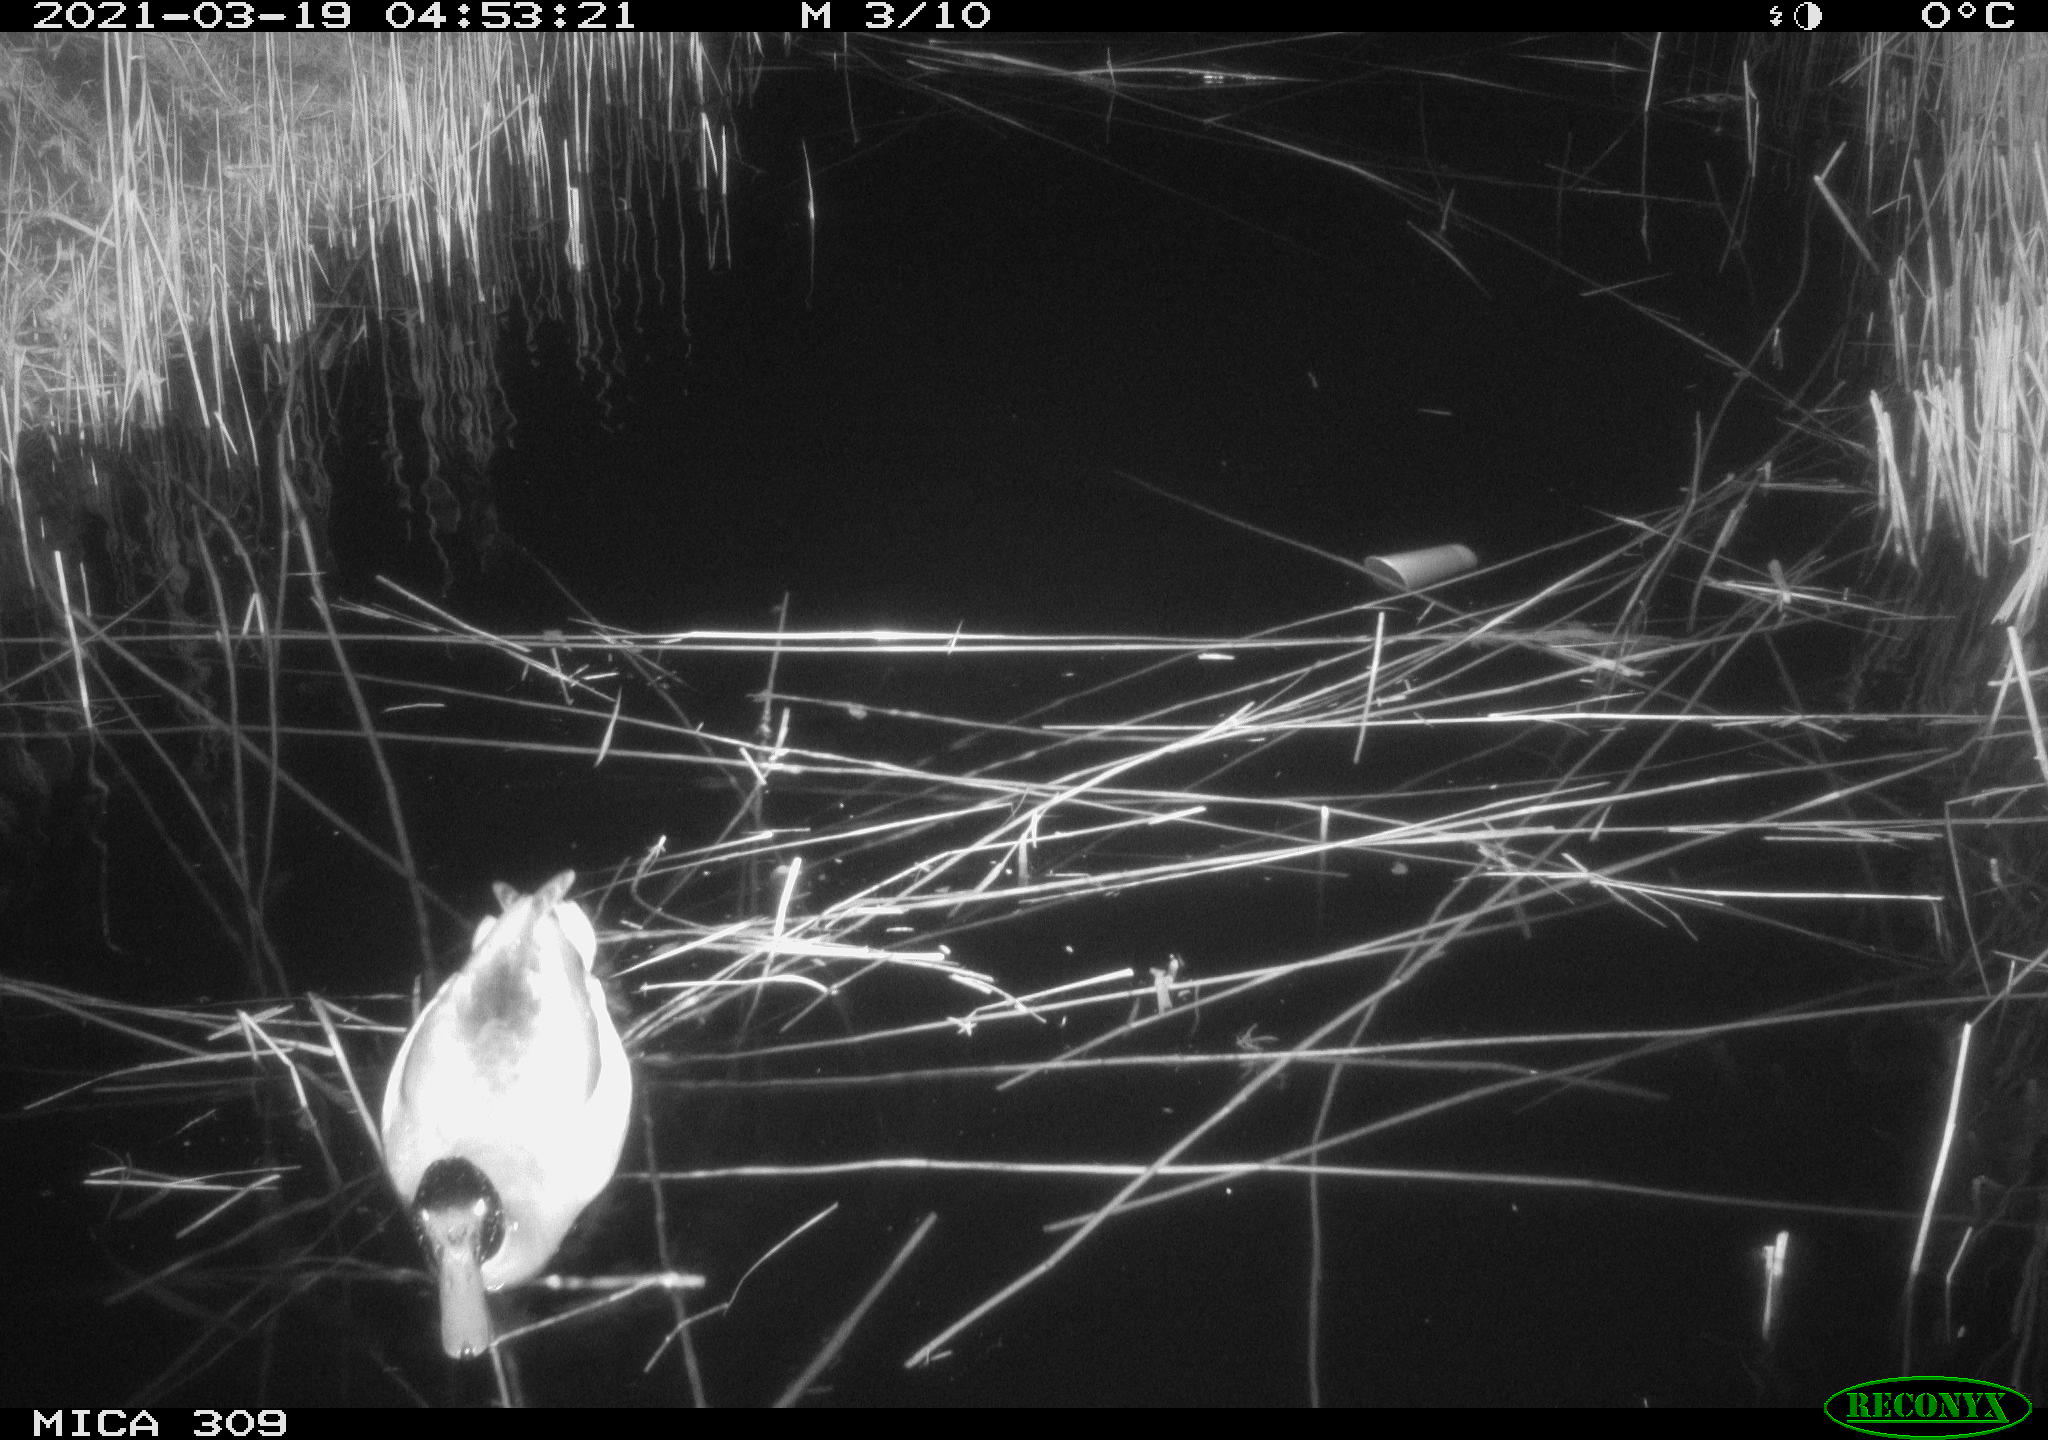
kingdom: Animalia
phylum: Chordata
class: Aves
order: Anseriformes
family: Anatidae
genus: Anas
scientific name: Anas platyrhynchos
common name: Mallard
